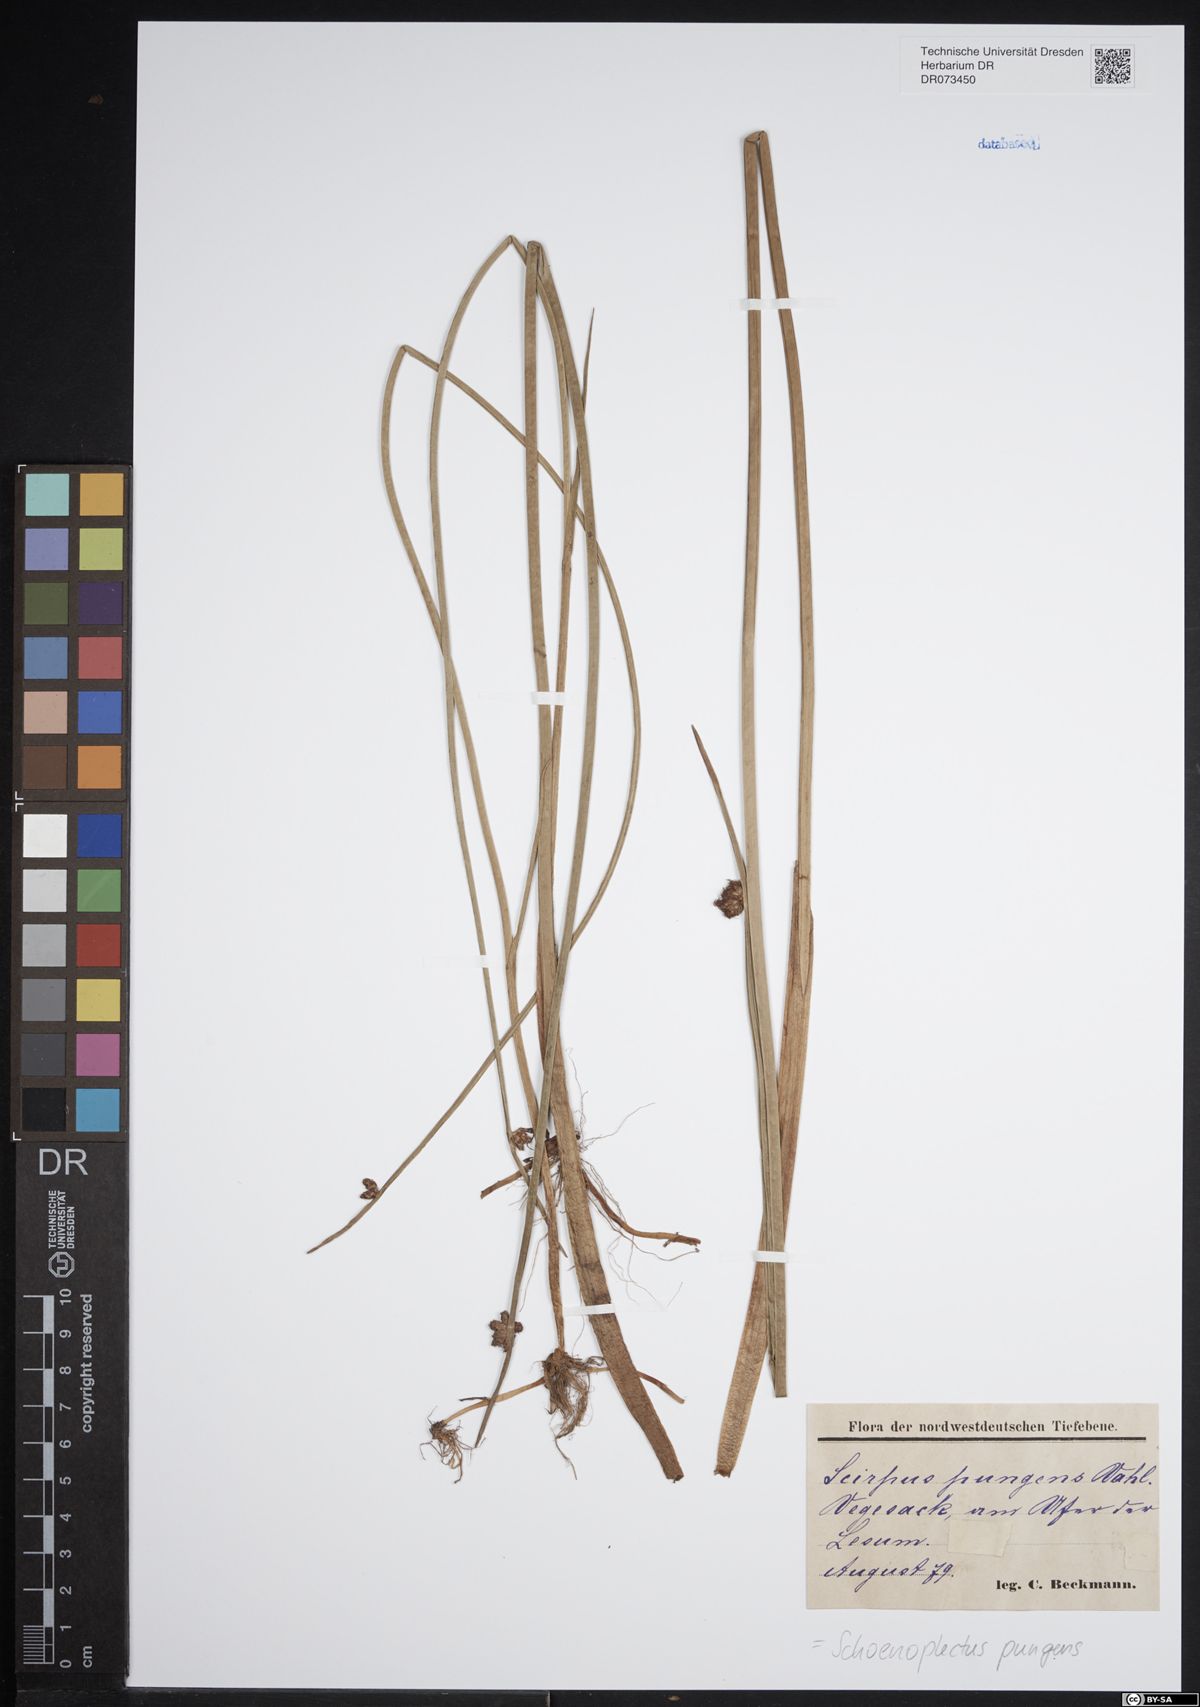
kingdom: Plantae
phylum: Tracheophyta
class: Liliopsida
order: Poales
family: Cyperaceae
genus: Schoenoplectus
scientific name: Schoenoplectus pungens
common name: Sharp club-rush
